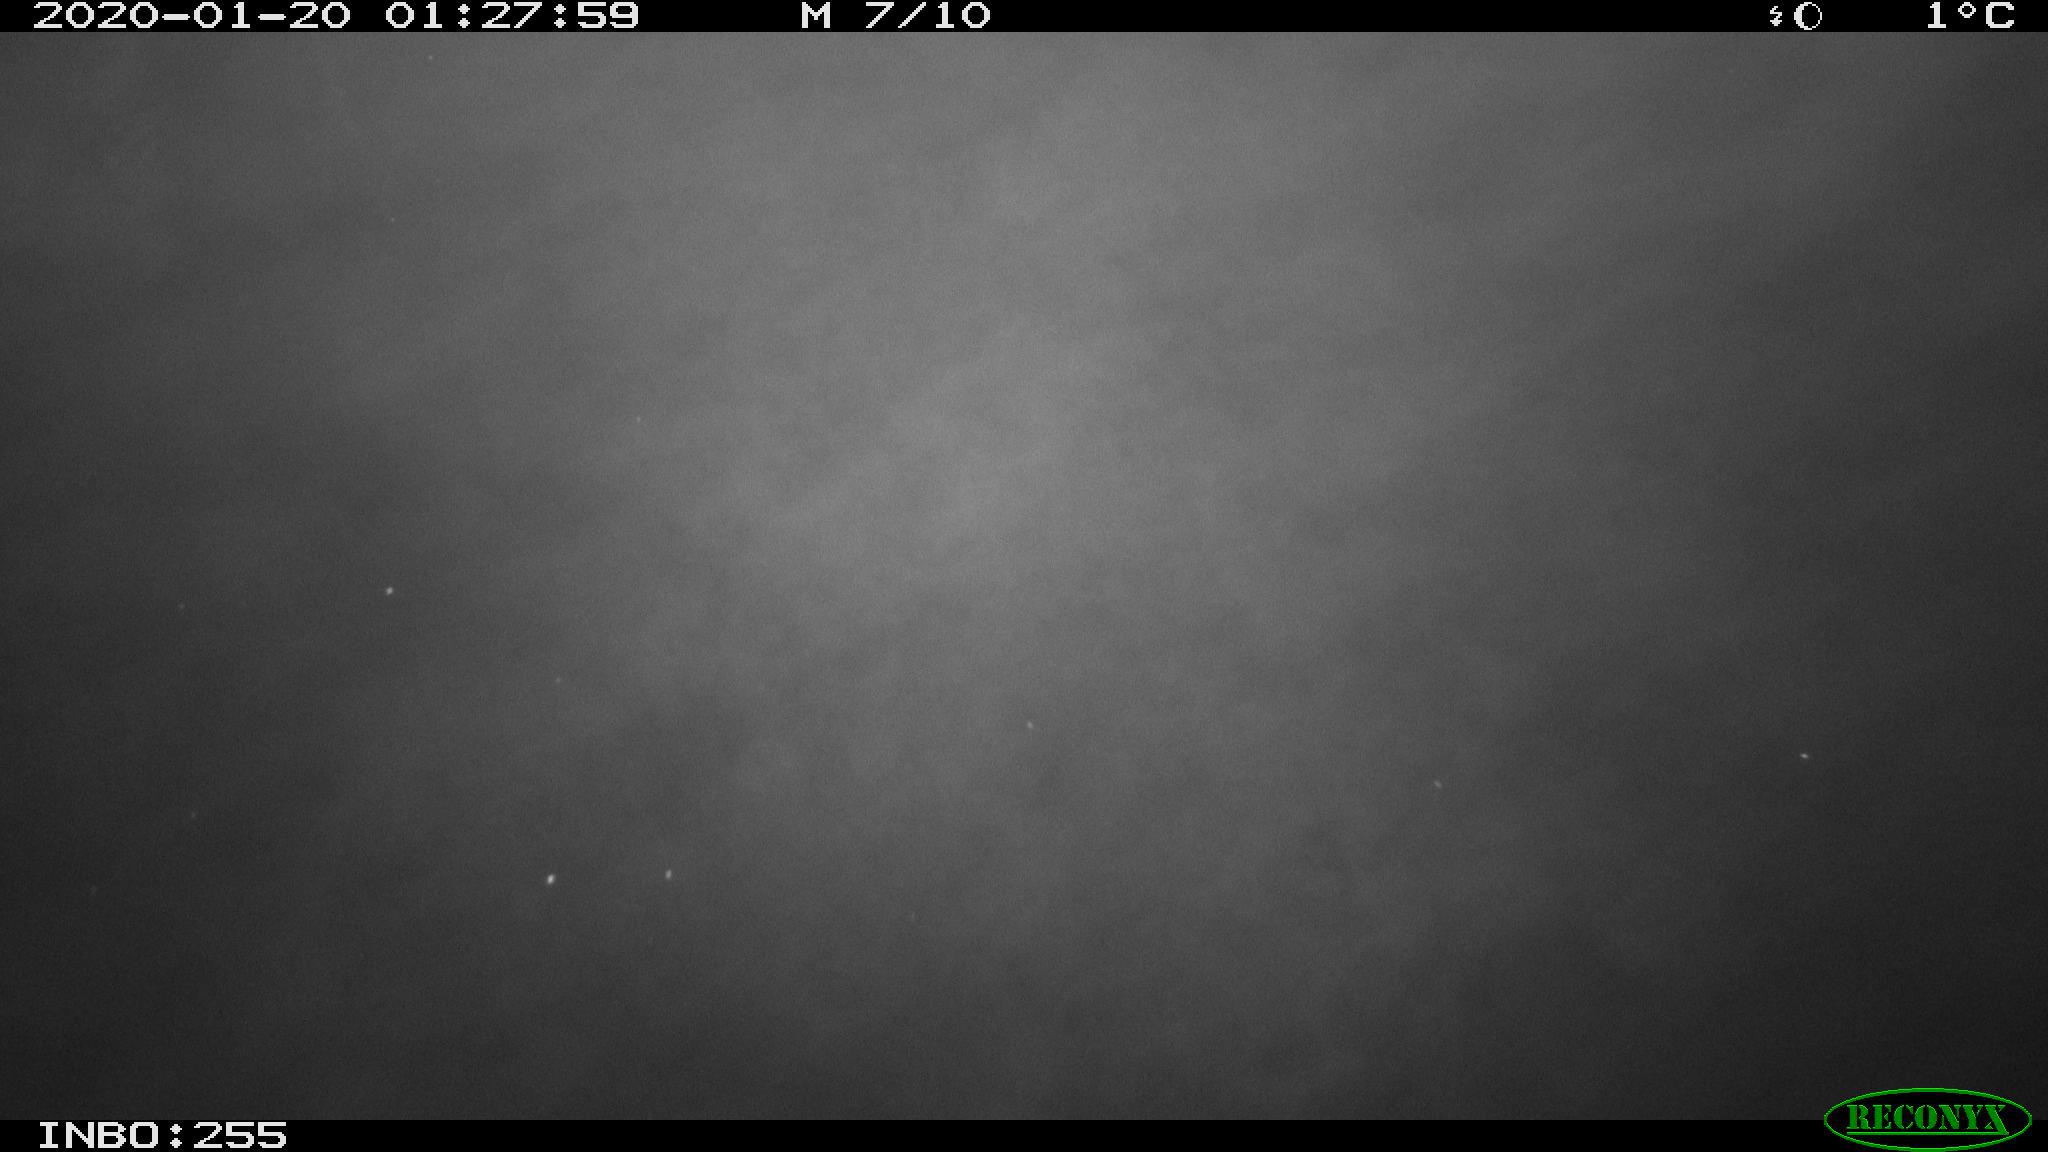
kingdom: Animalia
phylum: Chordata
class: Mammalia
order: Rodentia
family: Cricetidae
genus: Ondatra
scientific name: Ondatra zibethicus
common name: Muskrat
